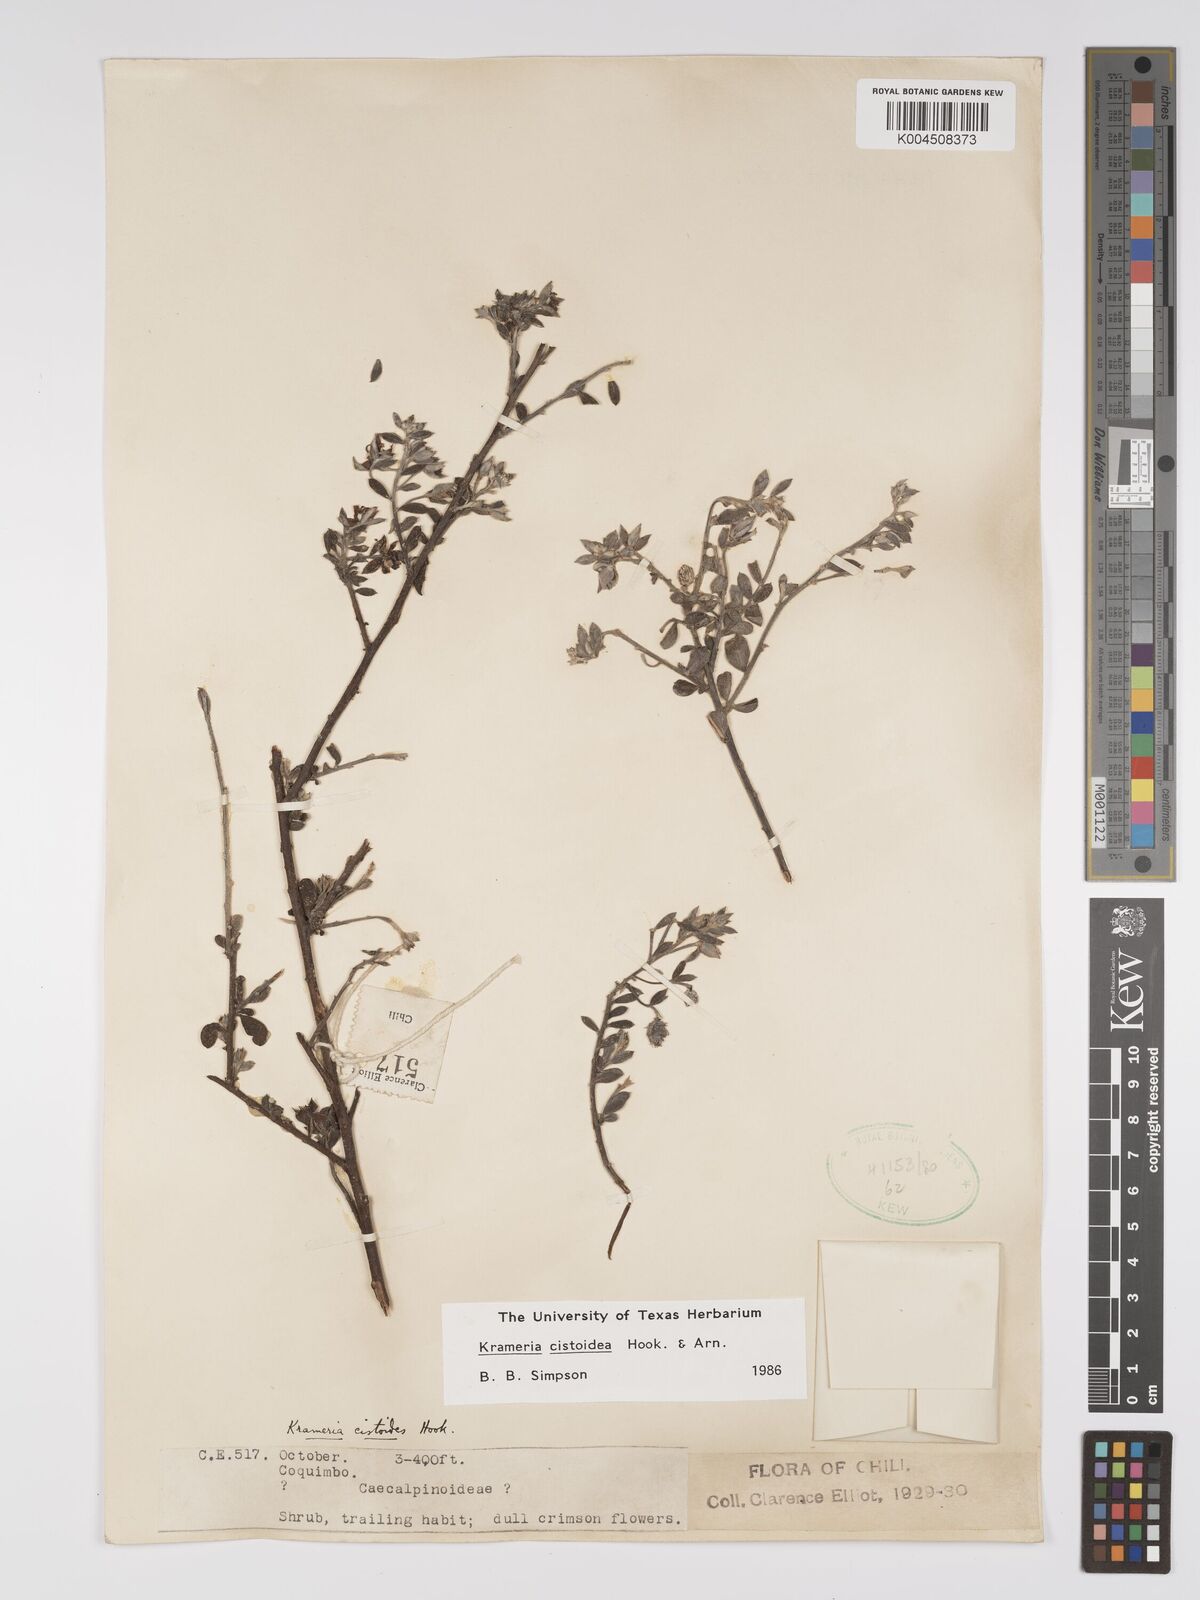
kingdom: Plantae
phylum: Tracheophyta
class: Magnoliopsida
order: Zygophyllales
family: Krameriaceae
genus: Krameria
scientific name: Krameria cistoidea
